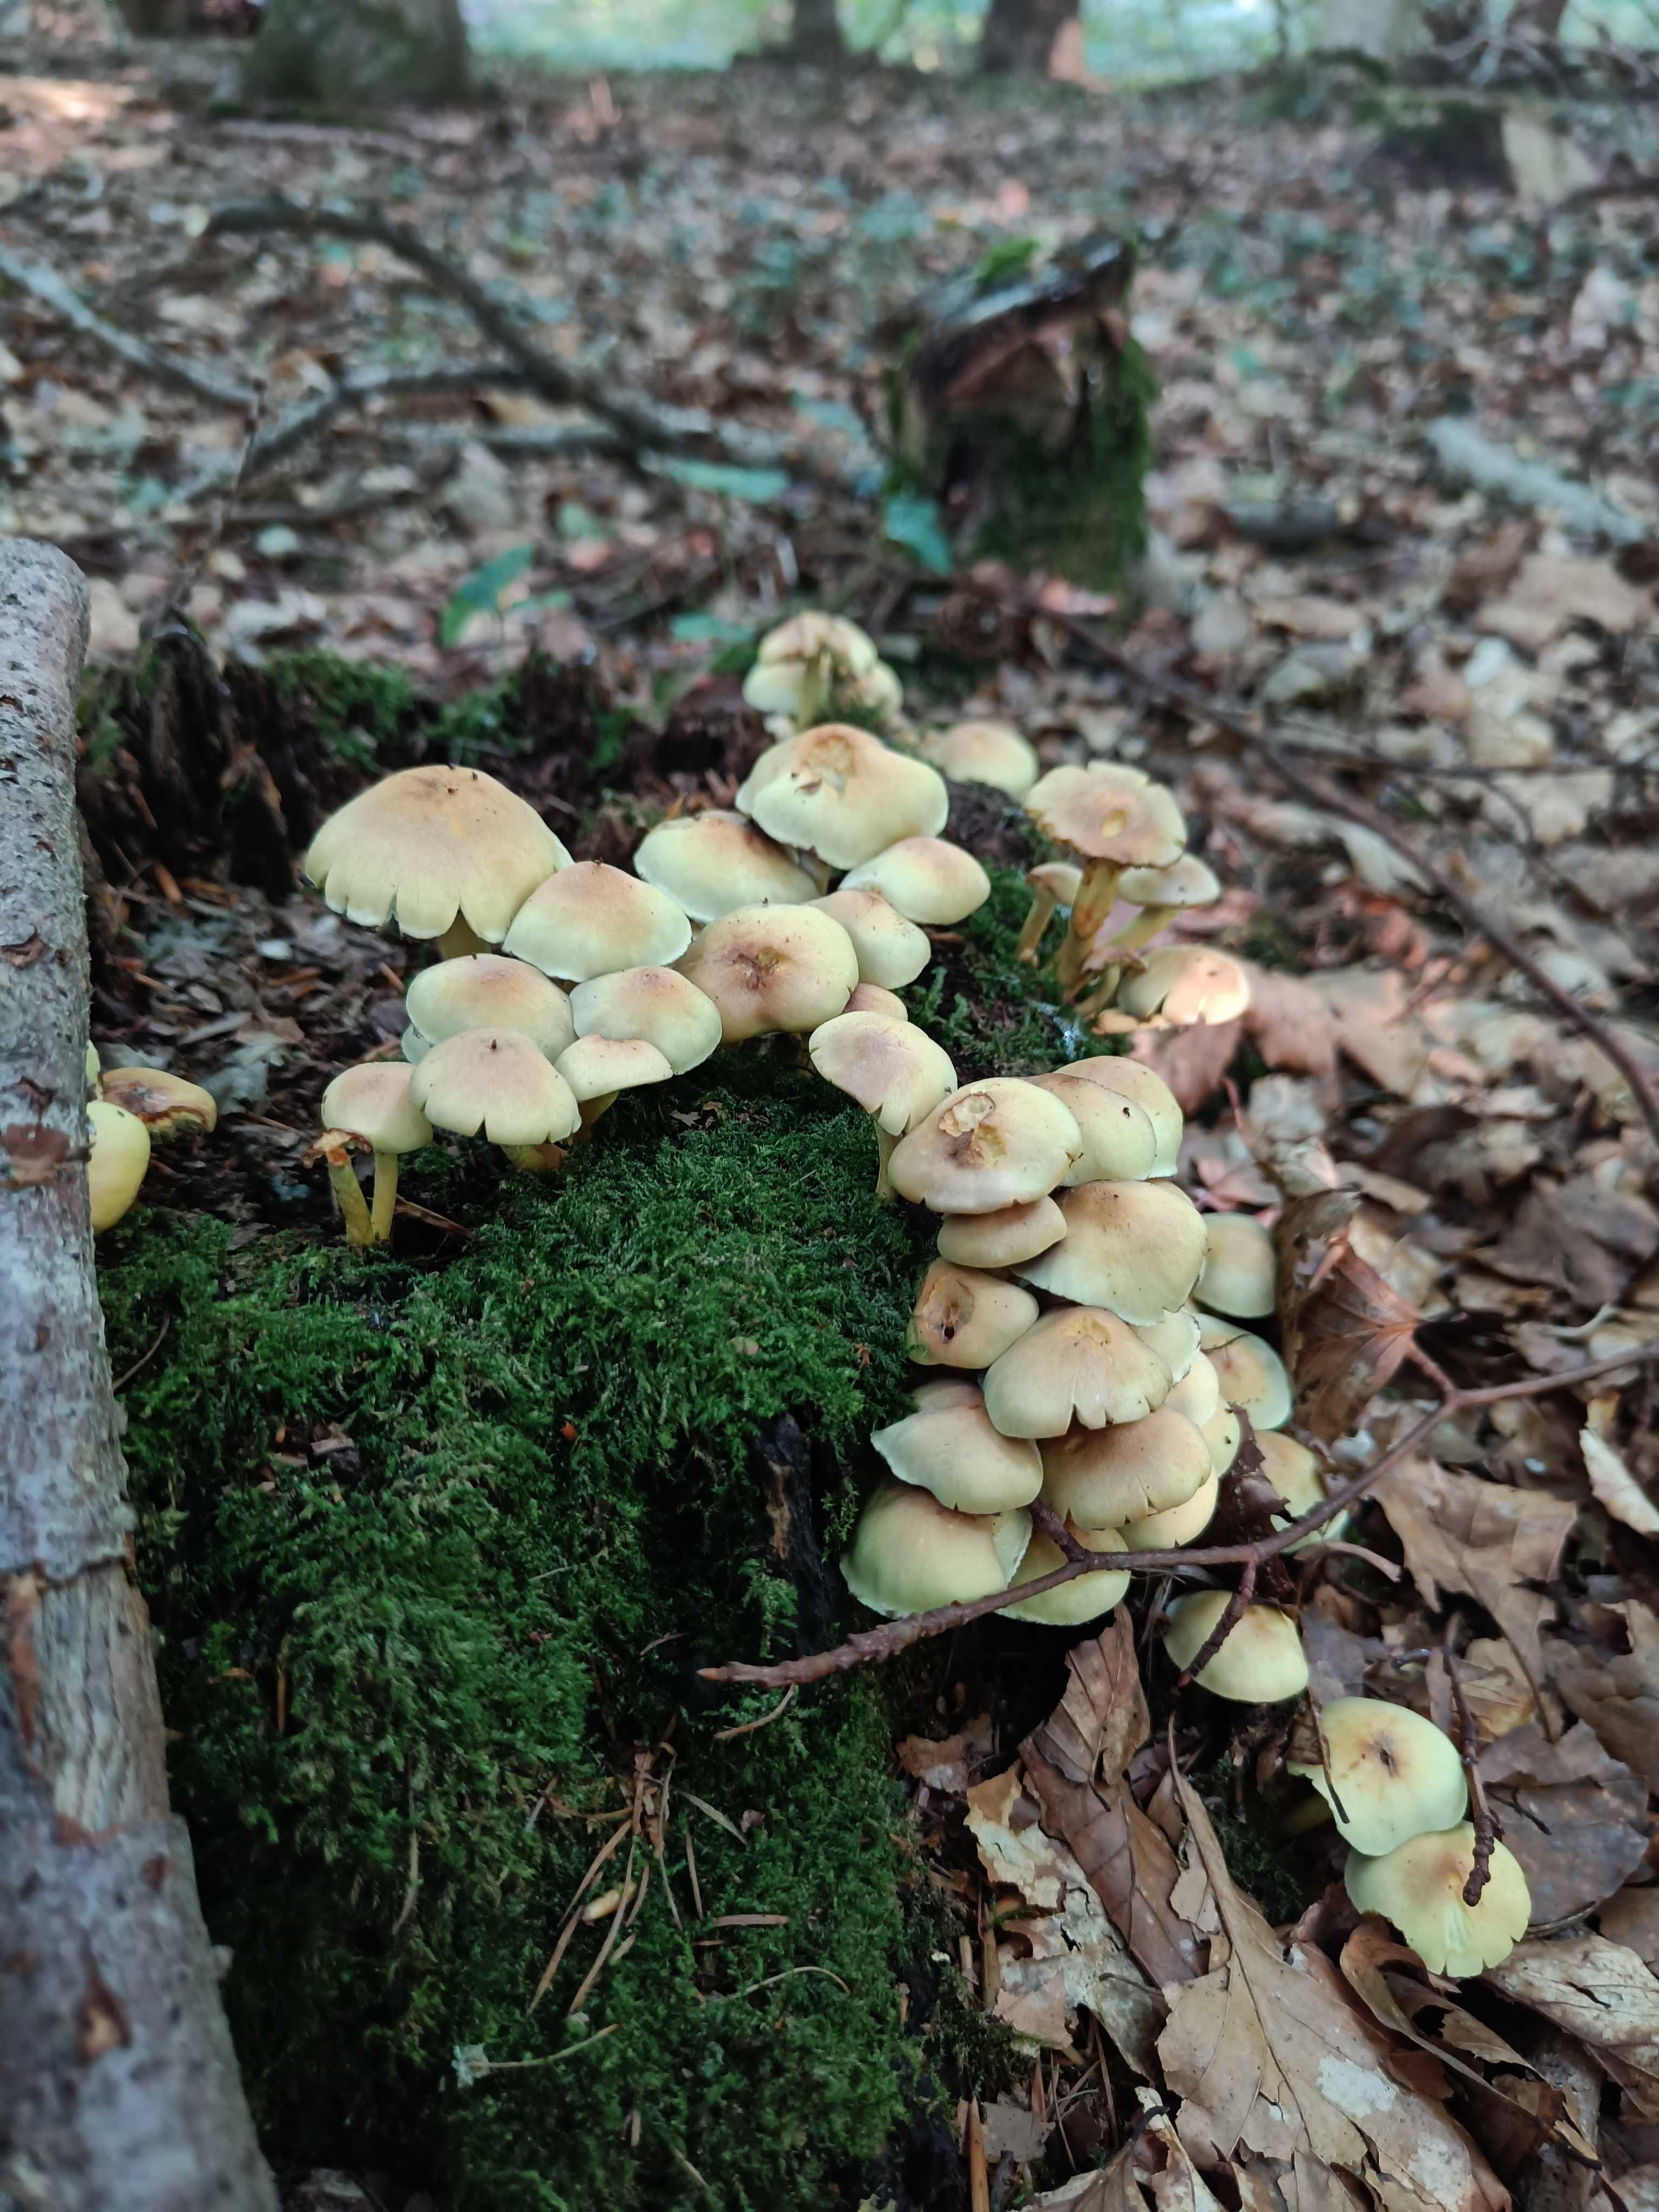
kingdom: Fungi
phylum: Basidiomycota
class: Agaricomycetes
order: Agaricales
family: Strophariaceae
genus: Hypholoma
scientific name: Hypholoma fasciculare
